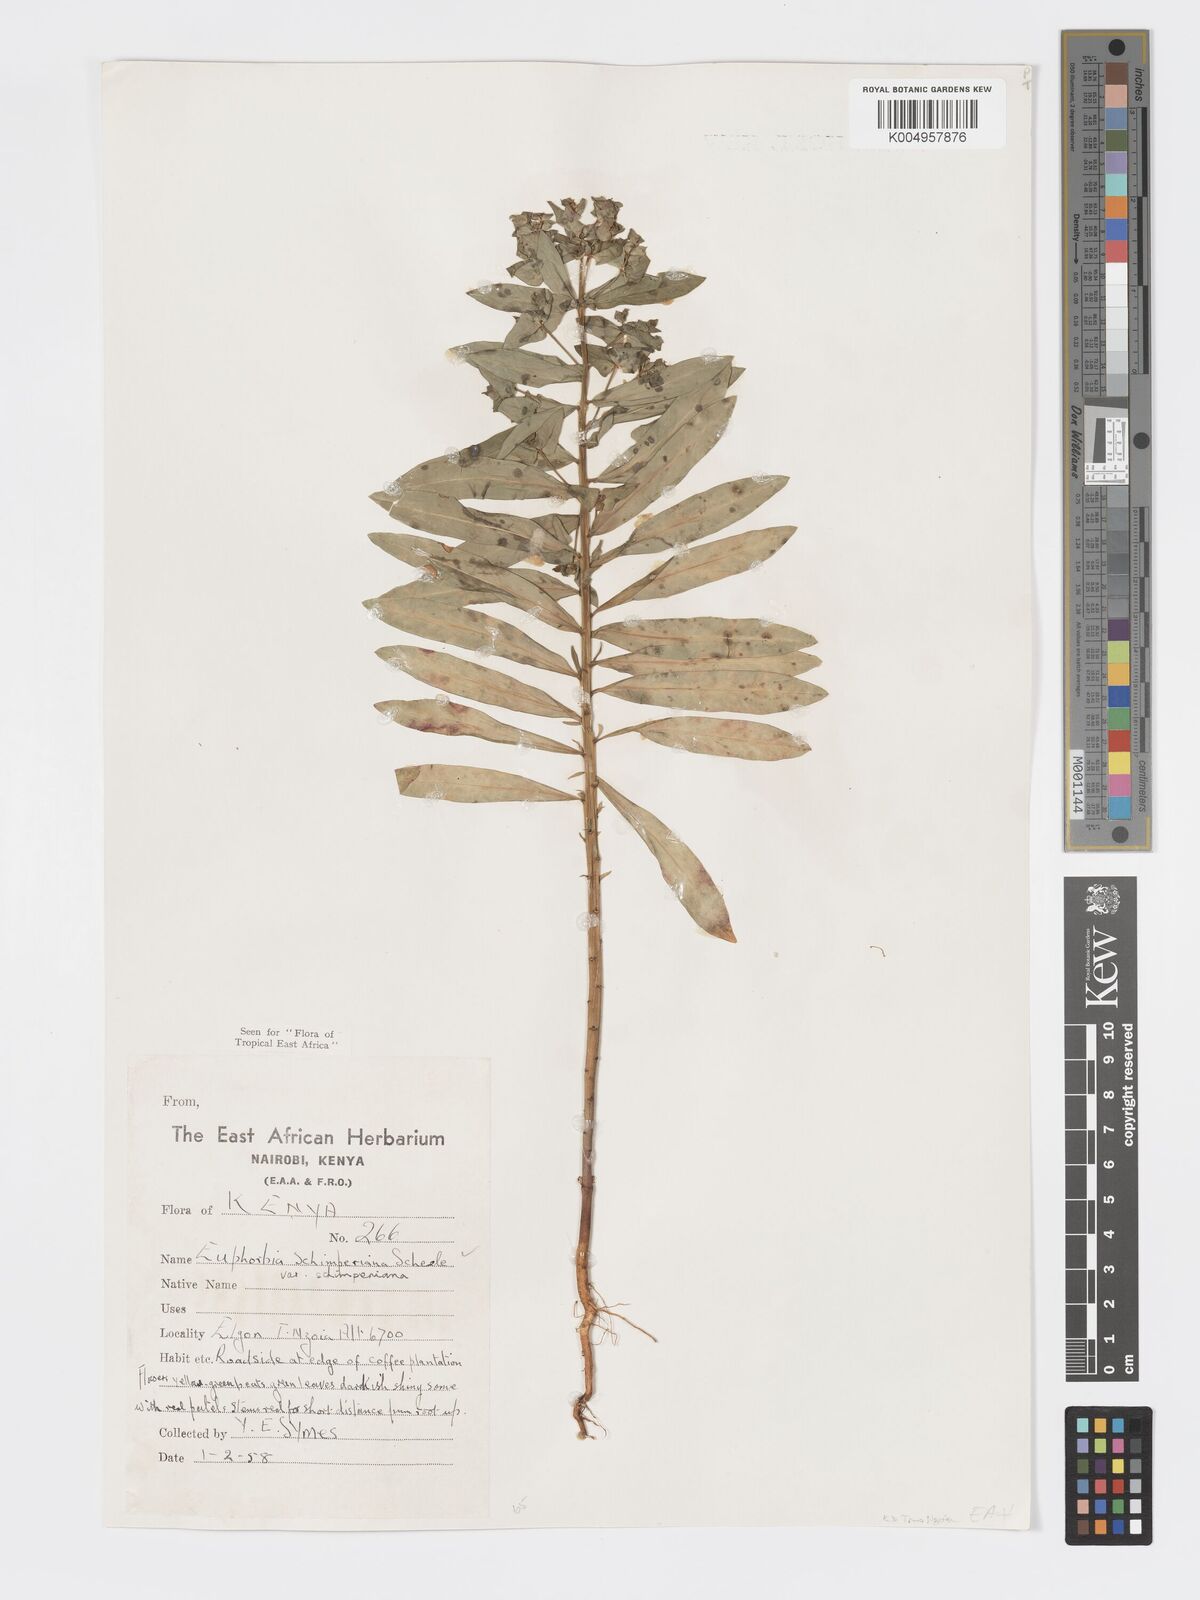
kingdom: Plantae
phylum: Tracheophyta
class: Magnoliopsida
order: Malpighiales
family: Euphorbiaceae
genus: Euphorbia
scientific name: Euphorbia schimperiana
